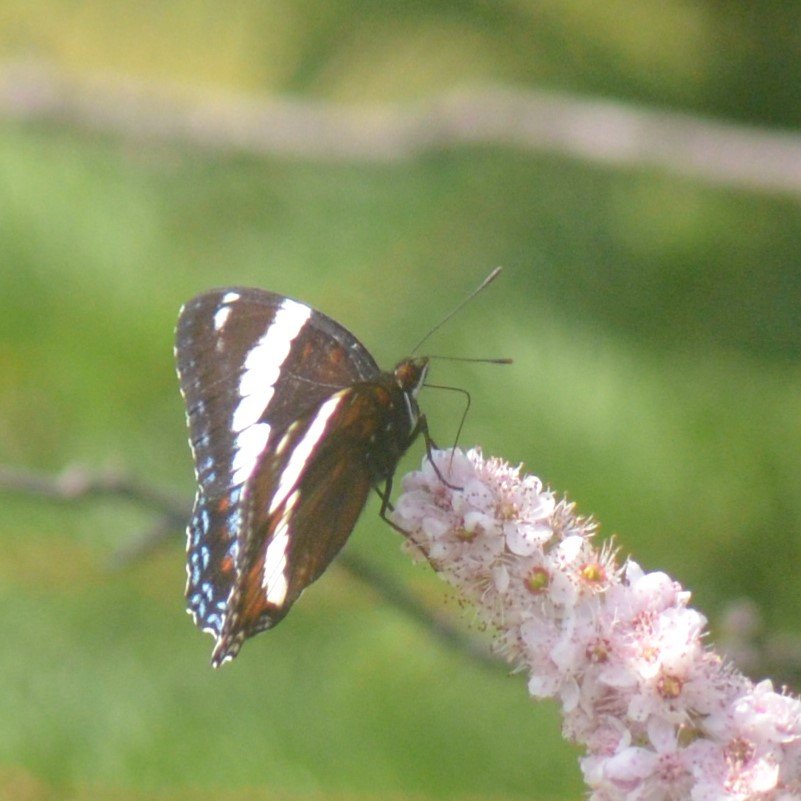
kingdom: Animalia
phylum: Arthropoda
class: Insecta
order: Lepidoptera
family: Nymphalidae
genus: Limenitis
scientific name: Limenitis arthemis
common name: Red-spotted Admiral
